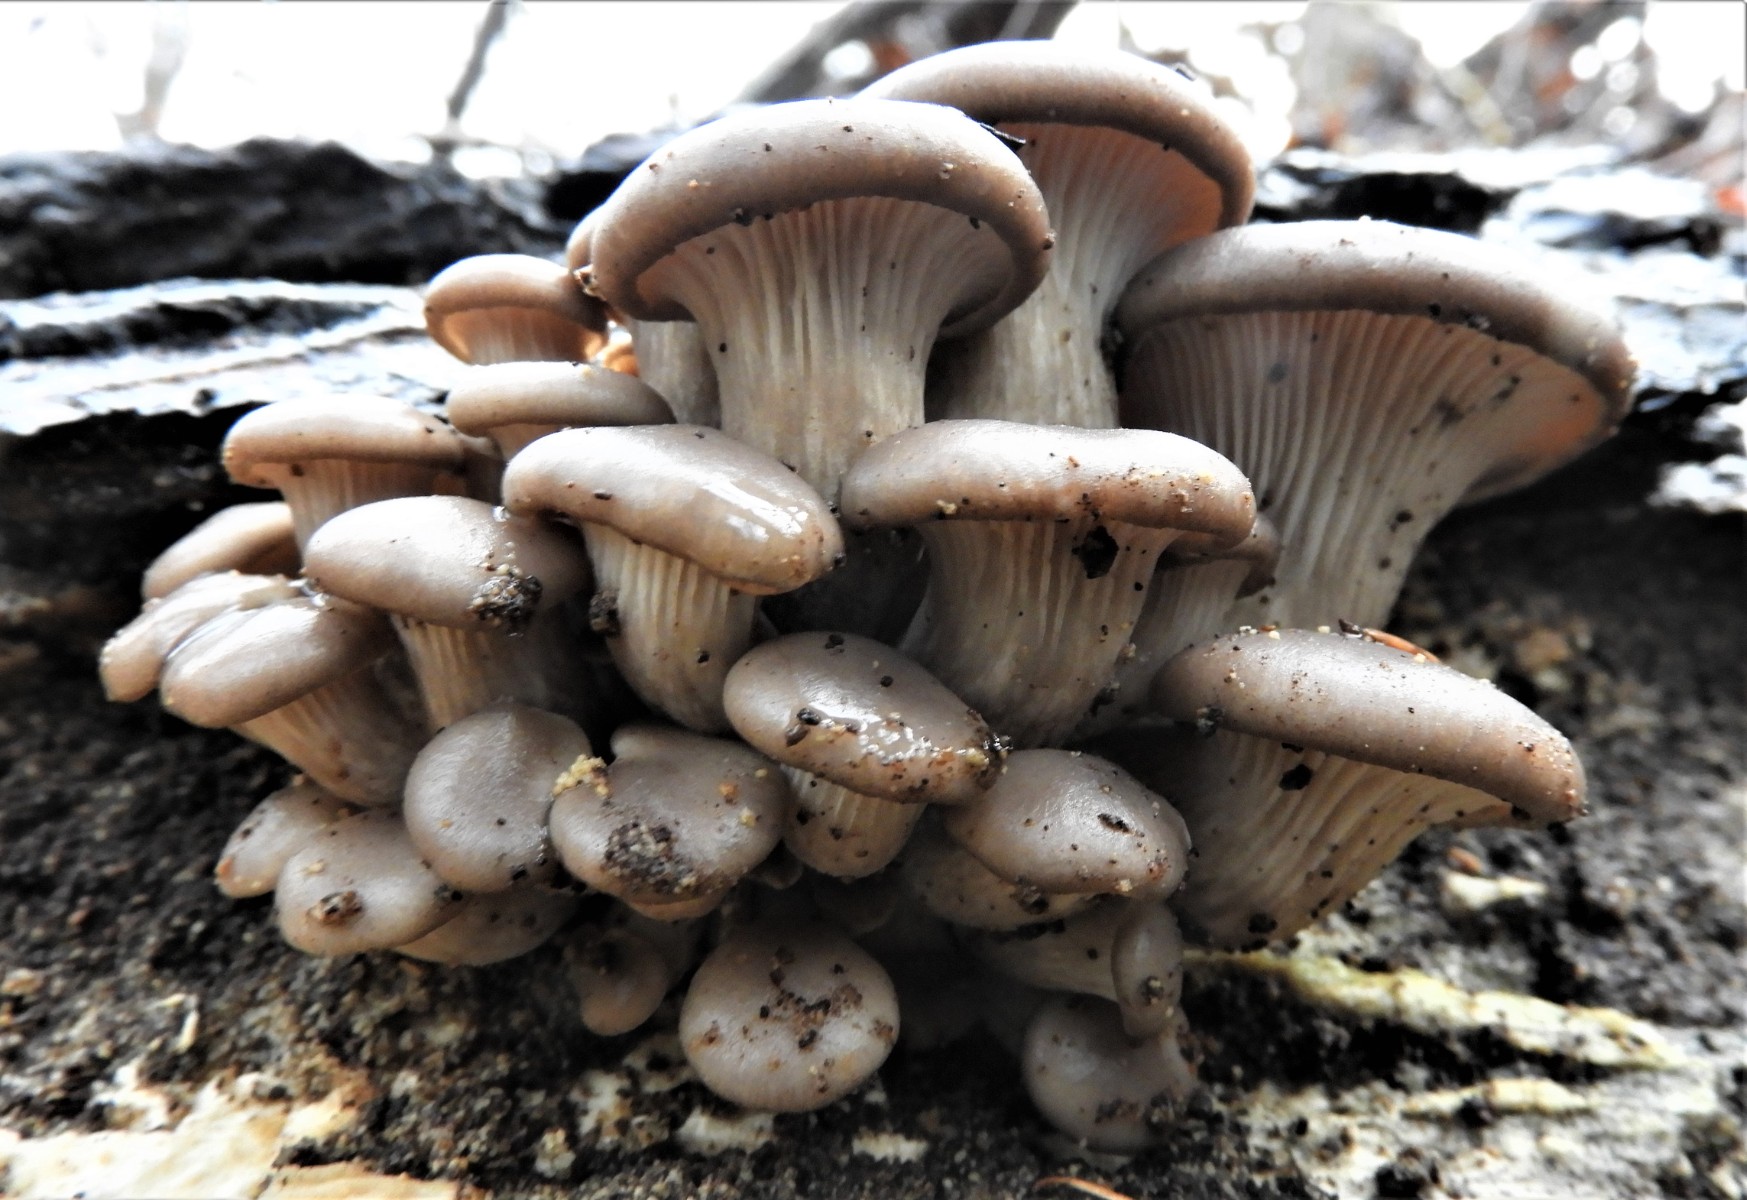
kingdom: Fungi
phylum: Basidiomycota
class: Agaricomycetes
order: Agaricales
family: Pleurotaceae
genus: Pleurotus
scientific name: Pleurotus ostreatus
